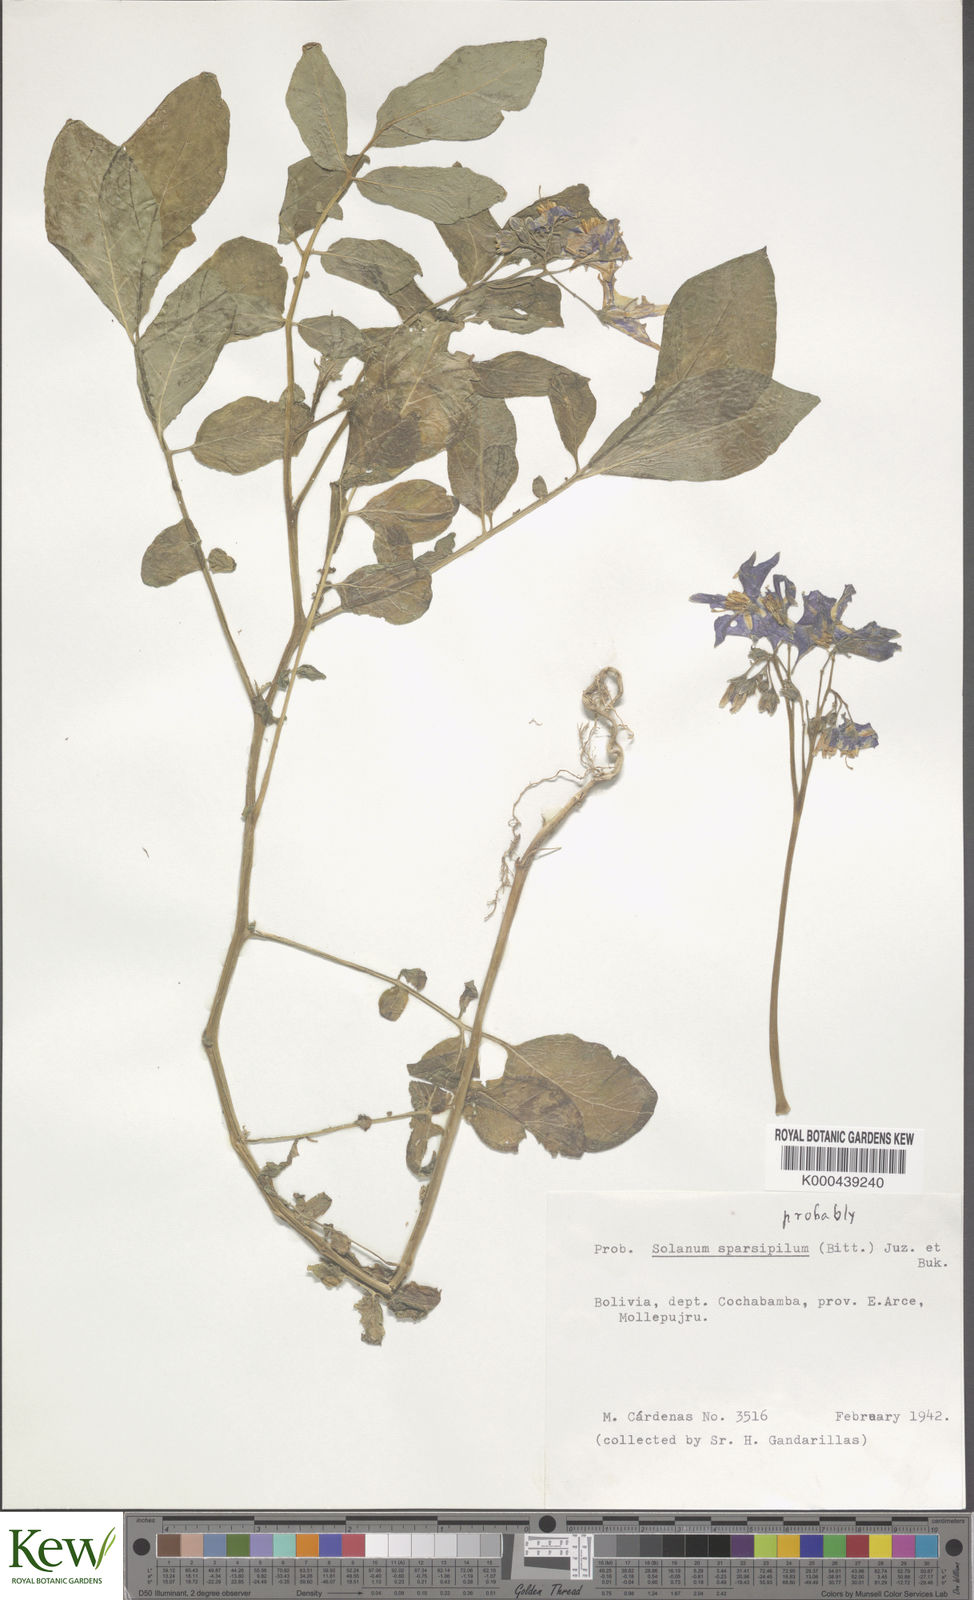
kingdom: Plantae
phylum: Tracheophyta
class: Magnoliopsida
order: Solanales
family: Solanaceae
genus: Solanum
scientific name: Solanum brevicaule
